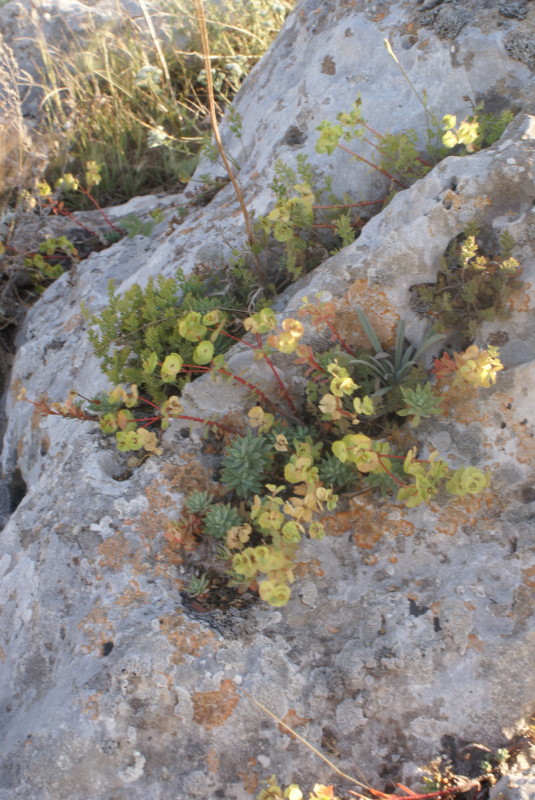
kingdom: Plantae
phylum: Tracheophyta
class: Magnoliopsida
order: Malpighiales
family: Euphorbiaceae
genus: Euphorbia
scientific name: Euphorbia petrophila
